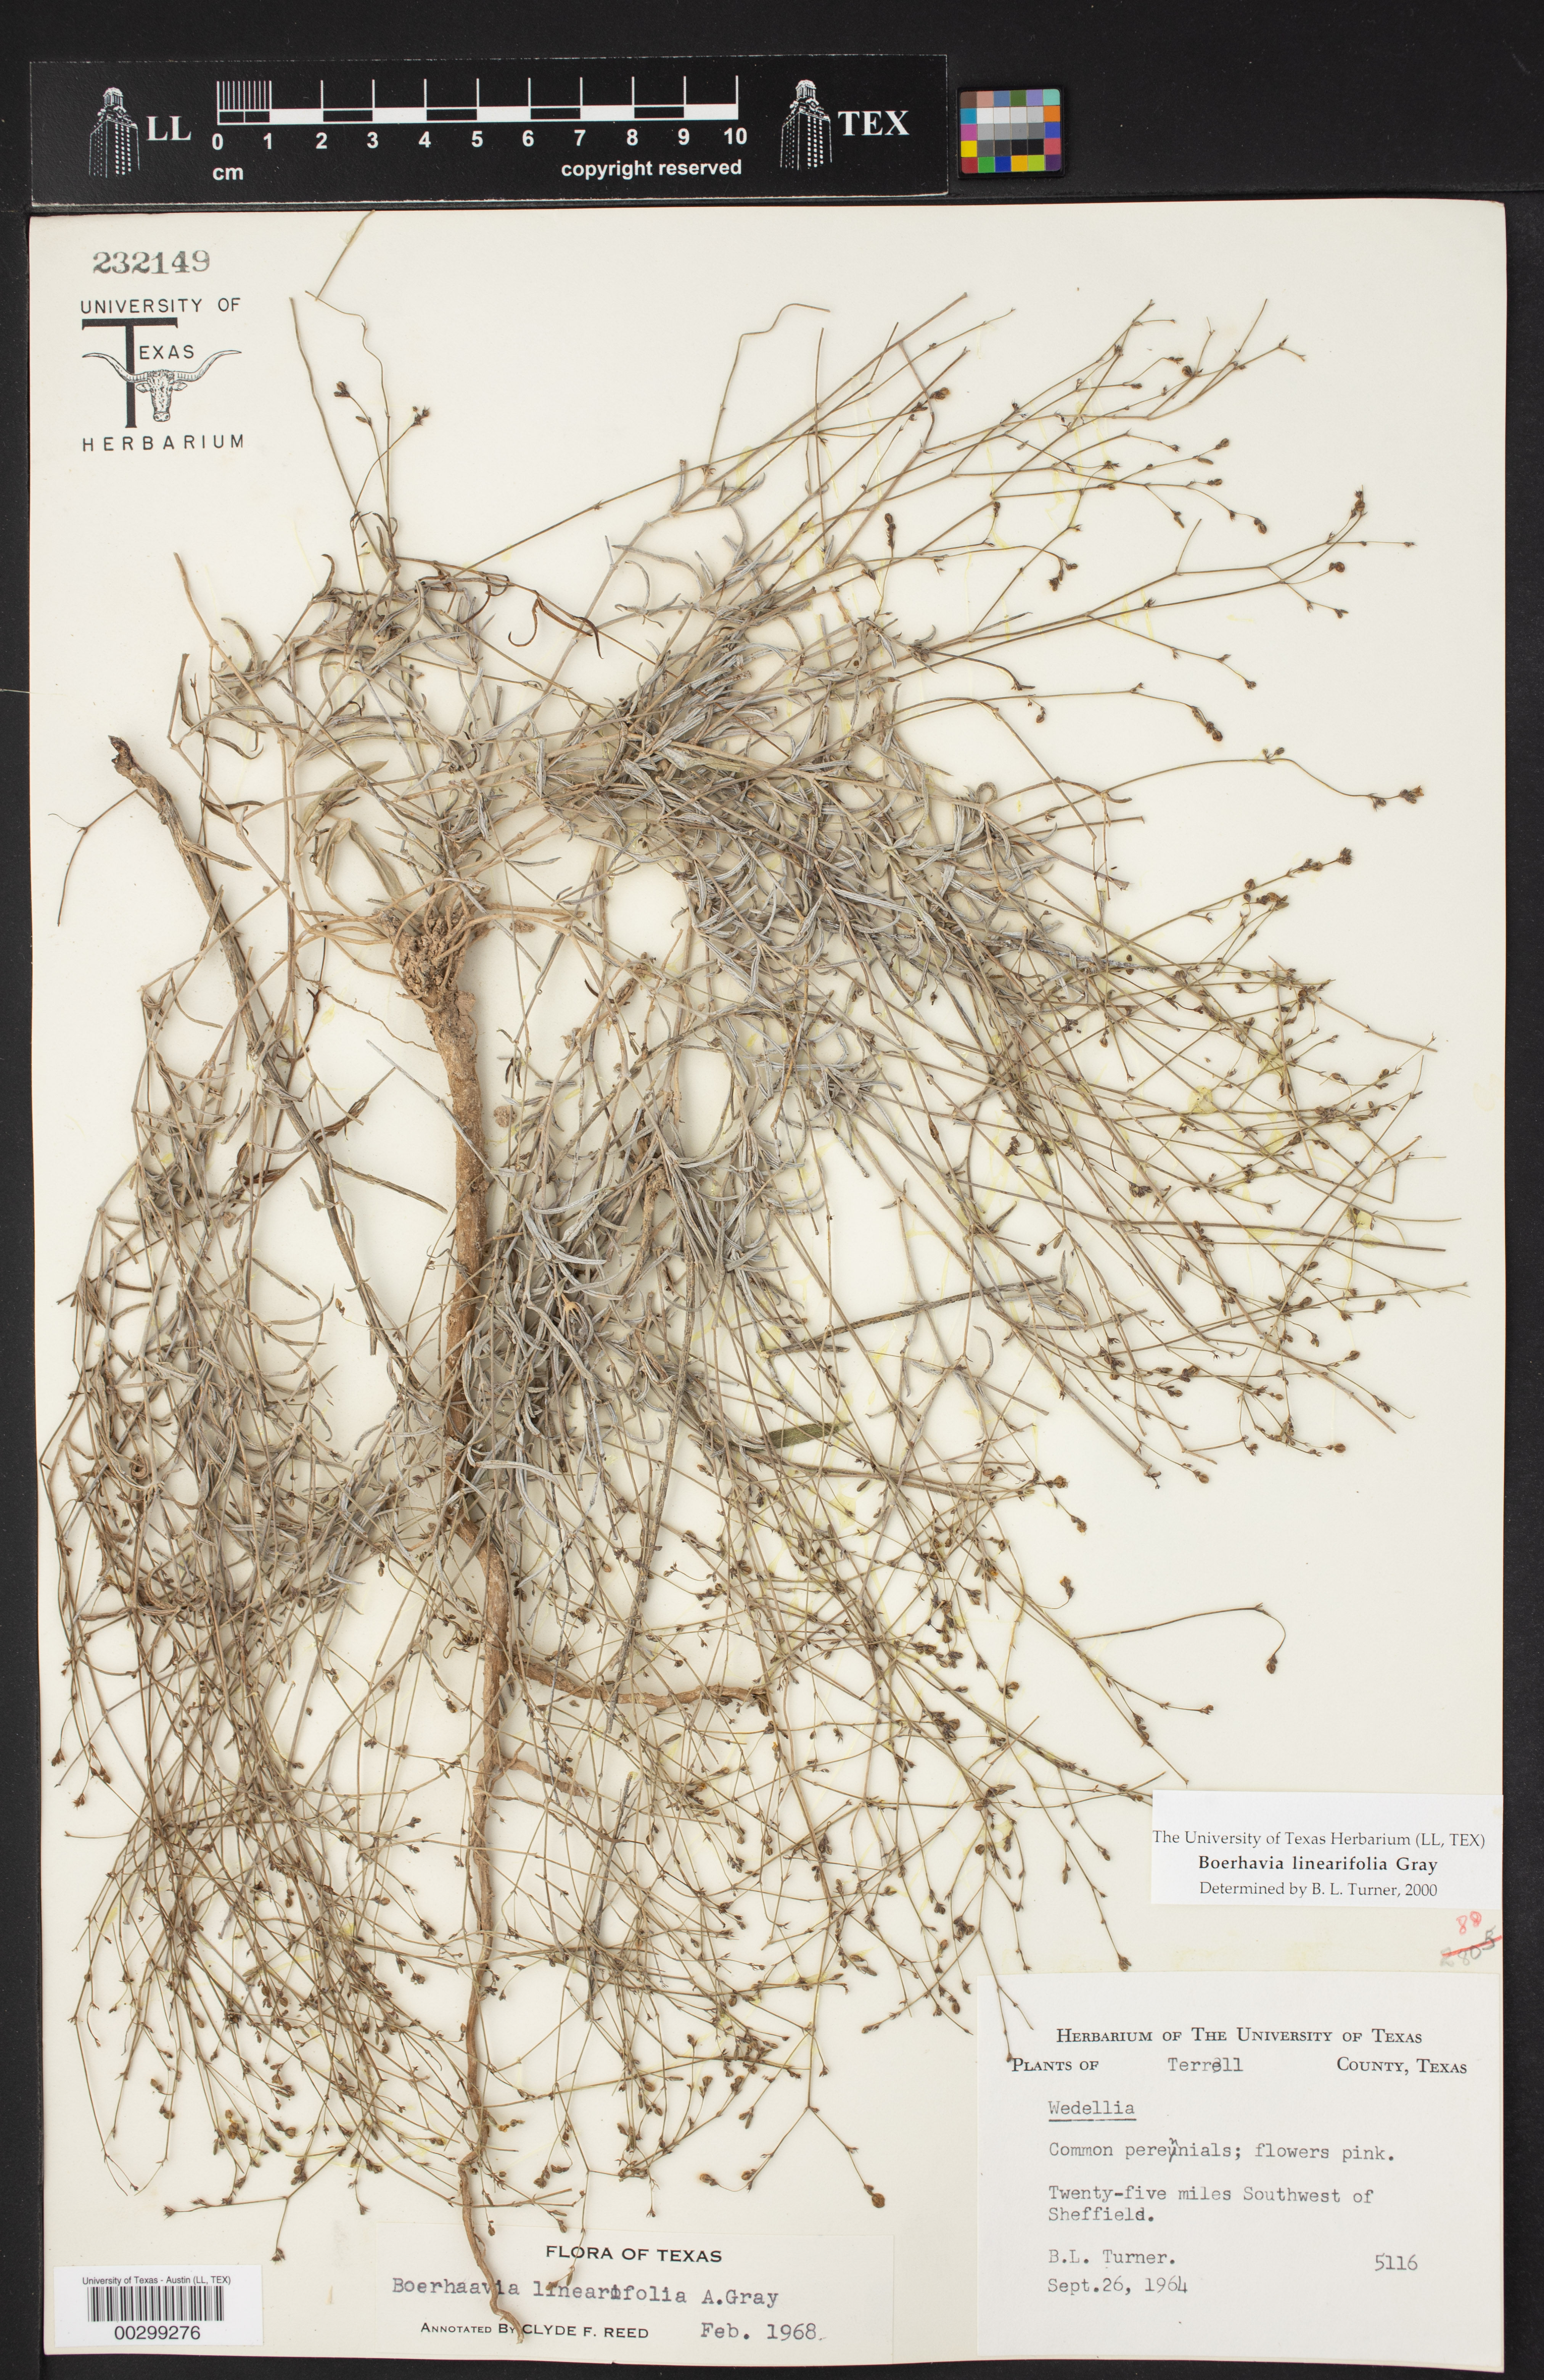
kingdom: Plantae
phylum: Tracheophyta
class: Magnoliopsida
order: Caryophyllales
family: Nyctaginaceae
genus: Boerhavia
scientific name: Boerhavia linearifolia
